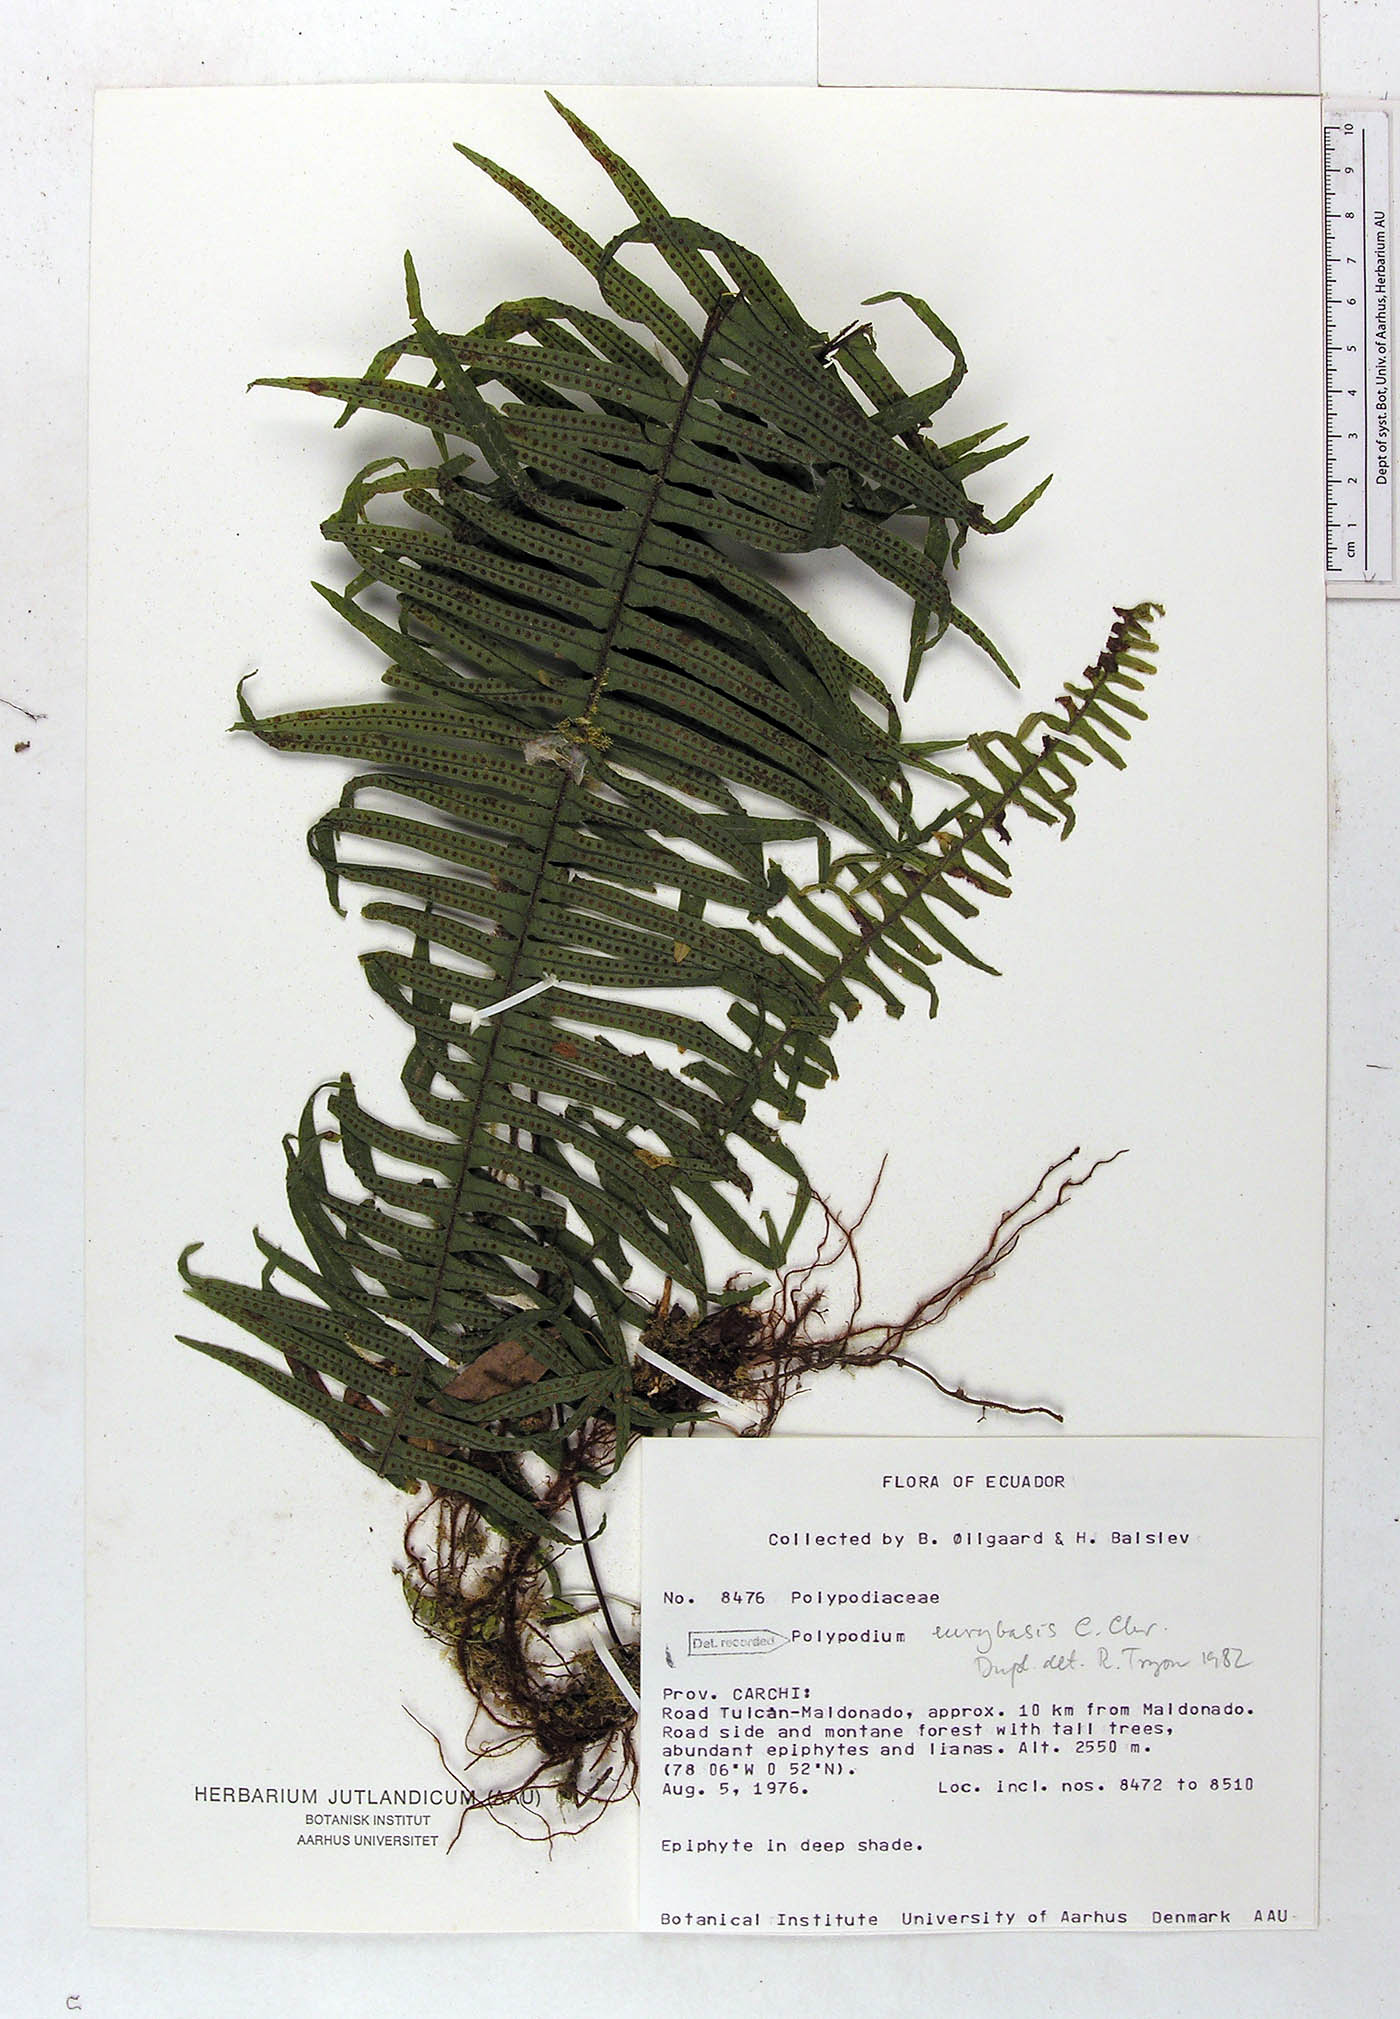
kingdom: Plantae
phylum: Tracheophyta
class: Polypodiopsida
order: Polypodiales
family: Polypodiaceae
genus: Pecluma
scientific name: Pecluma eurybasis
